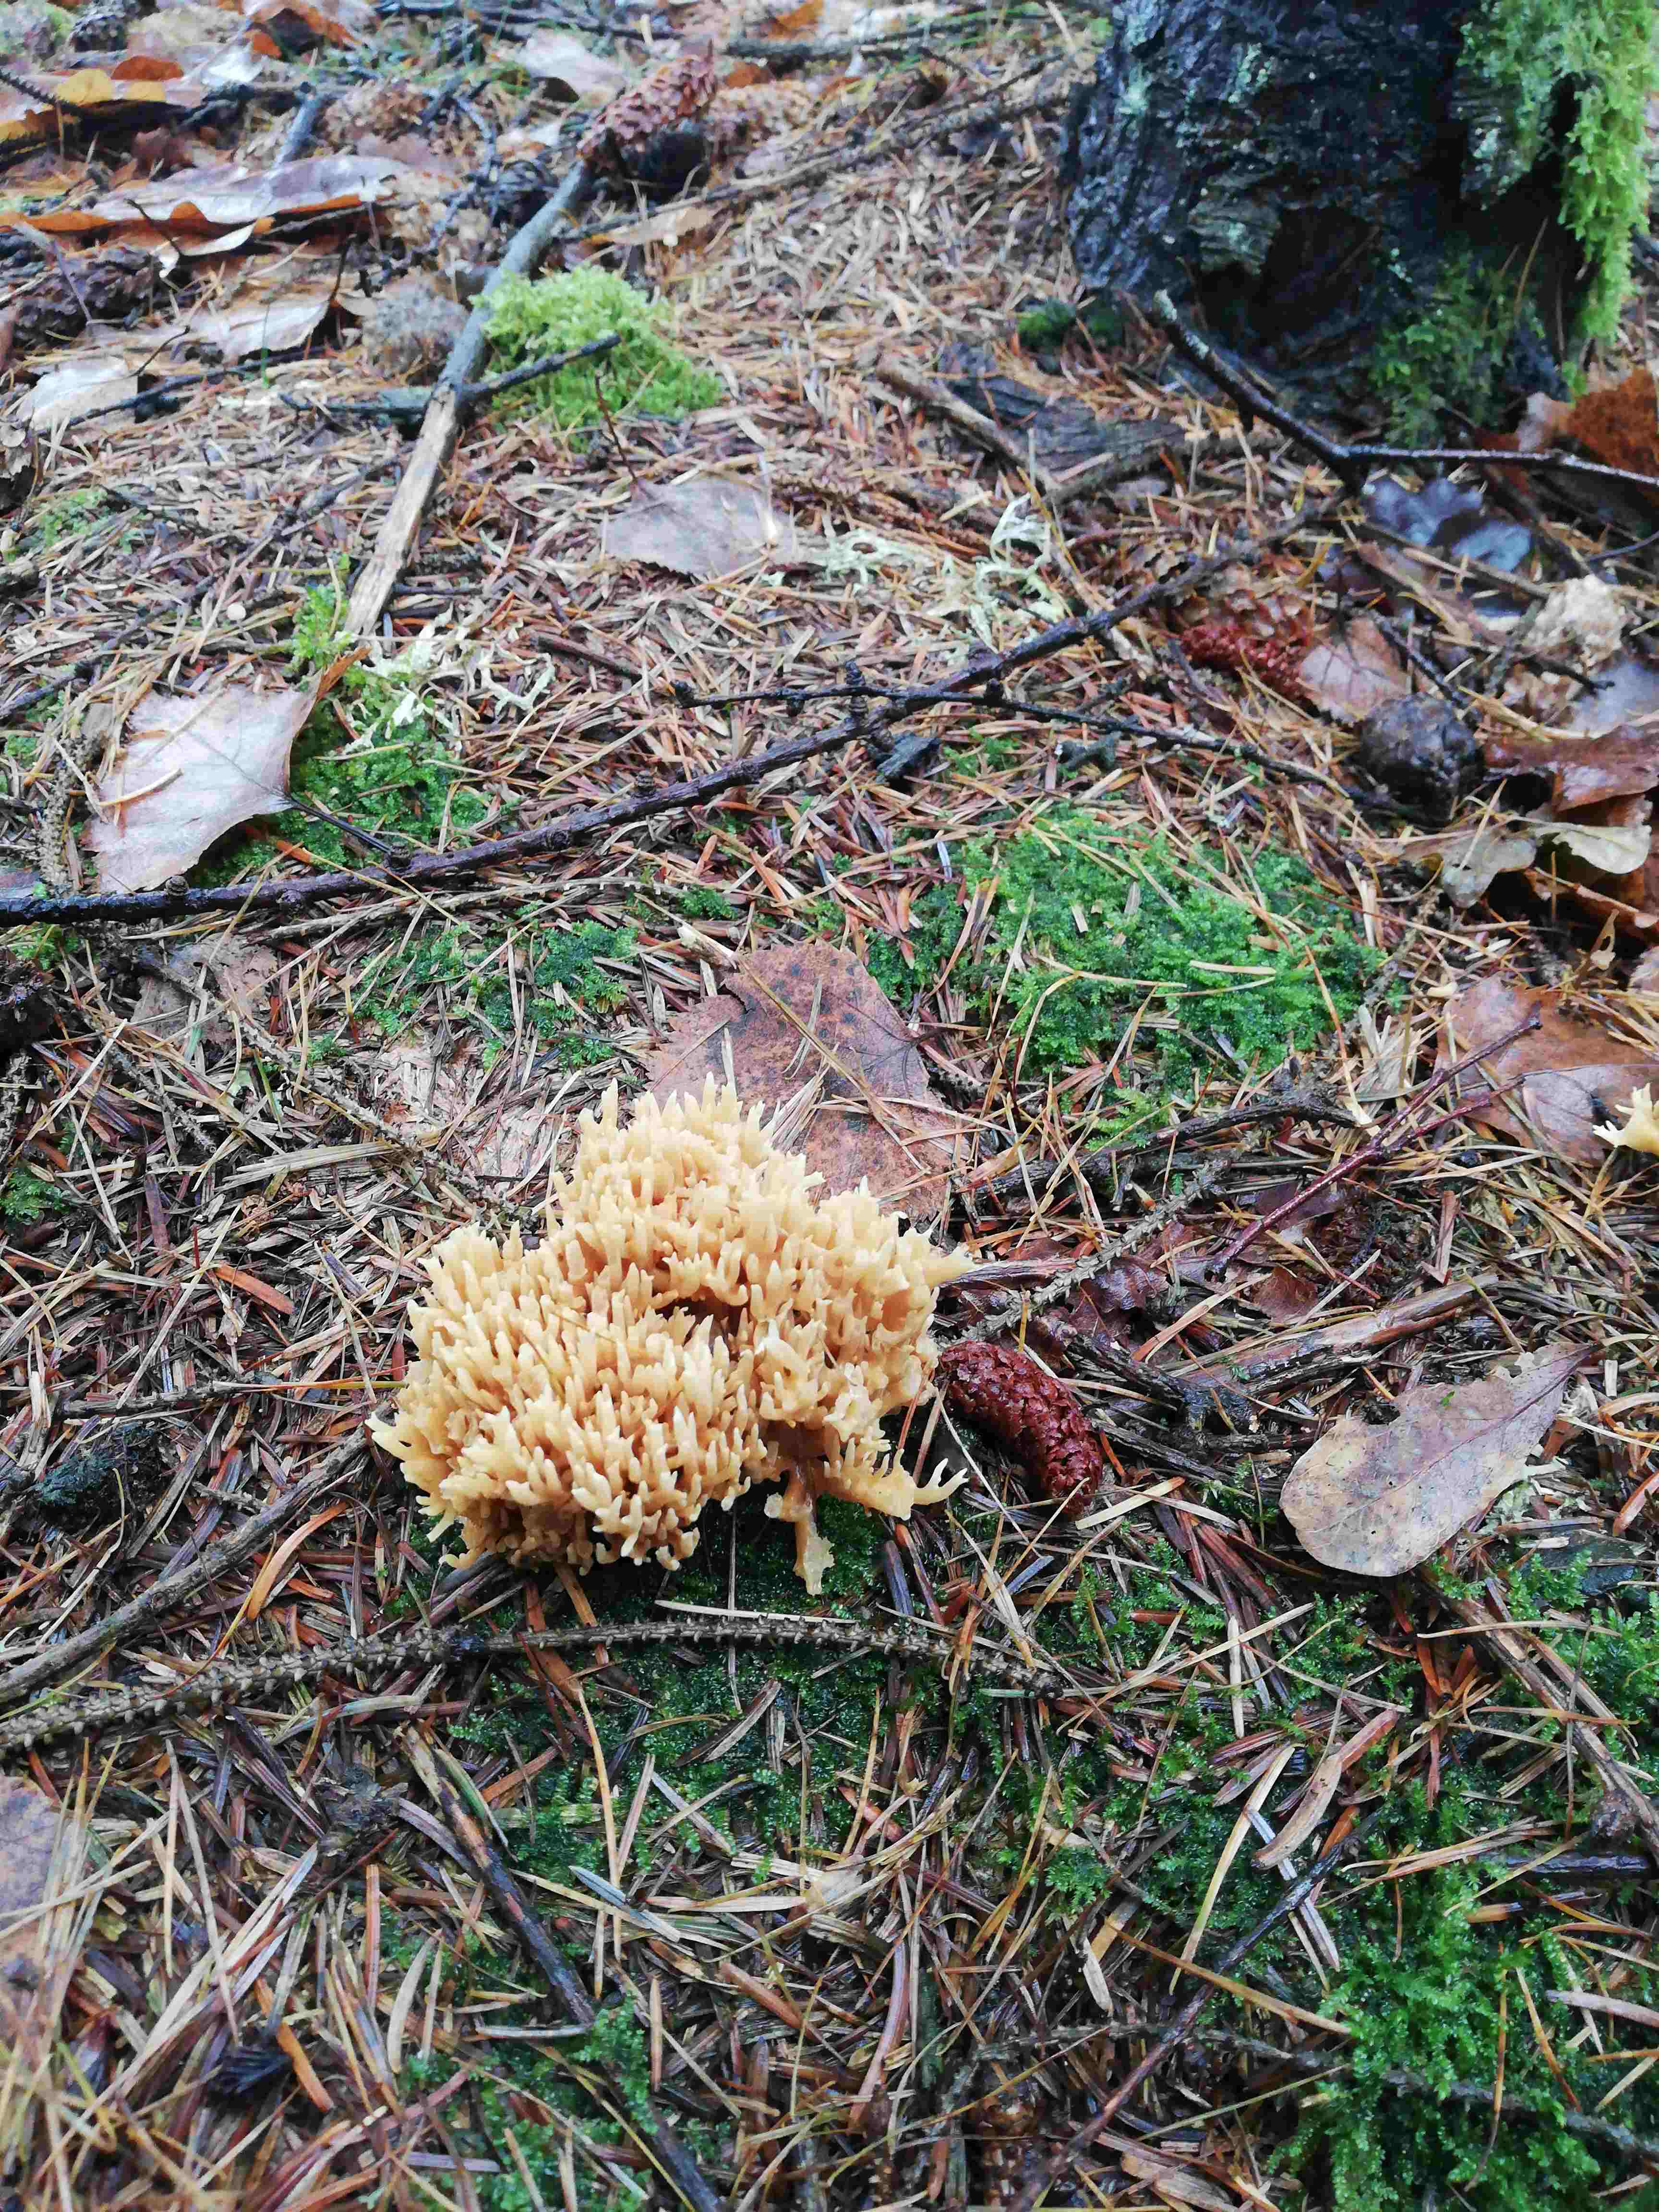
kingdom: Fungi
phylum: Basidiomycota
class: Agaricomycetes
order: Gomphales
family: Gomphaceae
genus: Phaeoclavulina
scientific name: Phaeoclavulina eumorpha
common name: gran-koralsvamp
